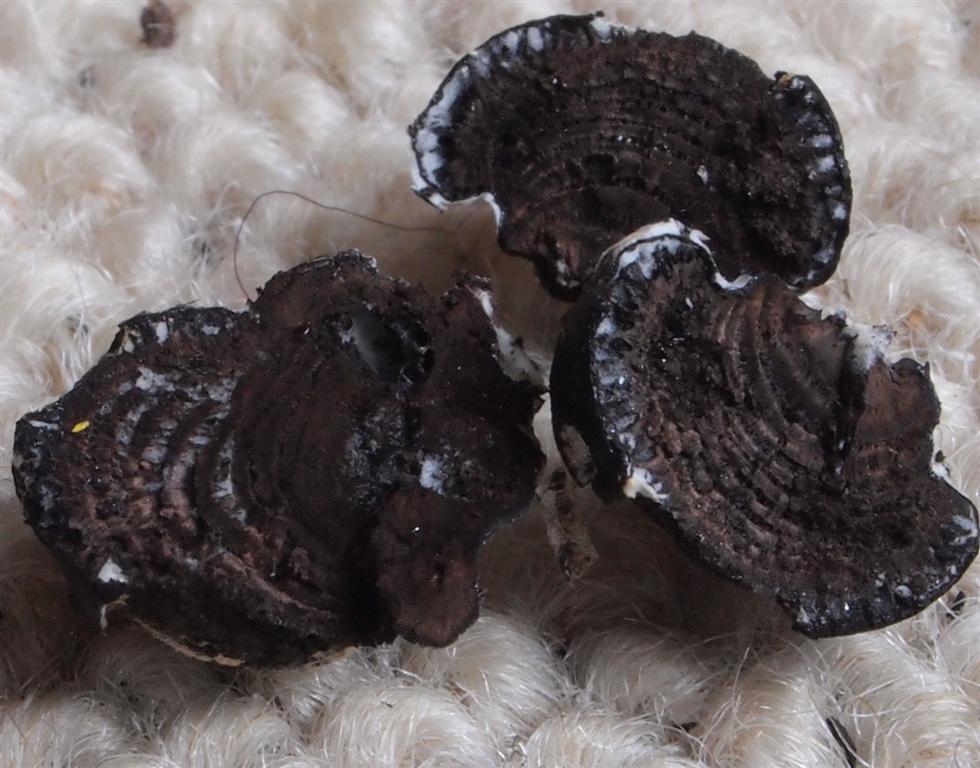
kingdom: Fungi
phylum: Ascomycota
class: Sordariomycetes
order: Xylariales
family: Hypoxylaceae
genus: Daldinia
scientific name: Daldinia decipiens
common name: stilket bæltekugle
